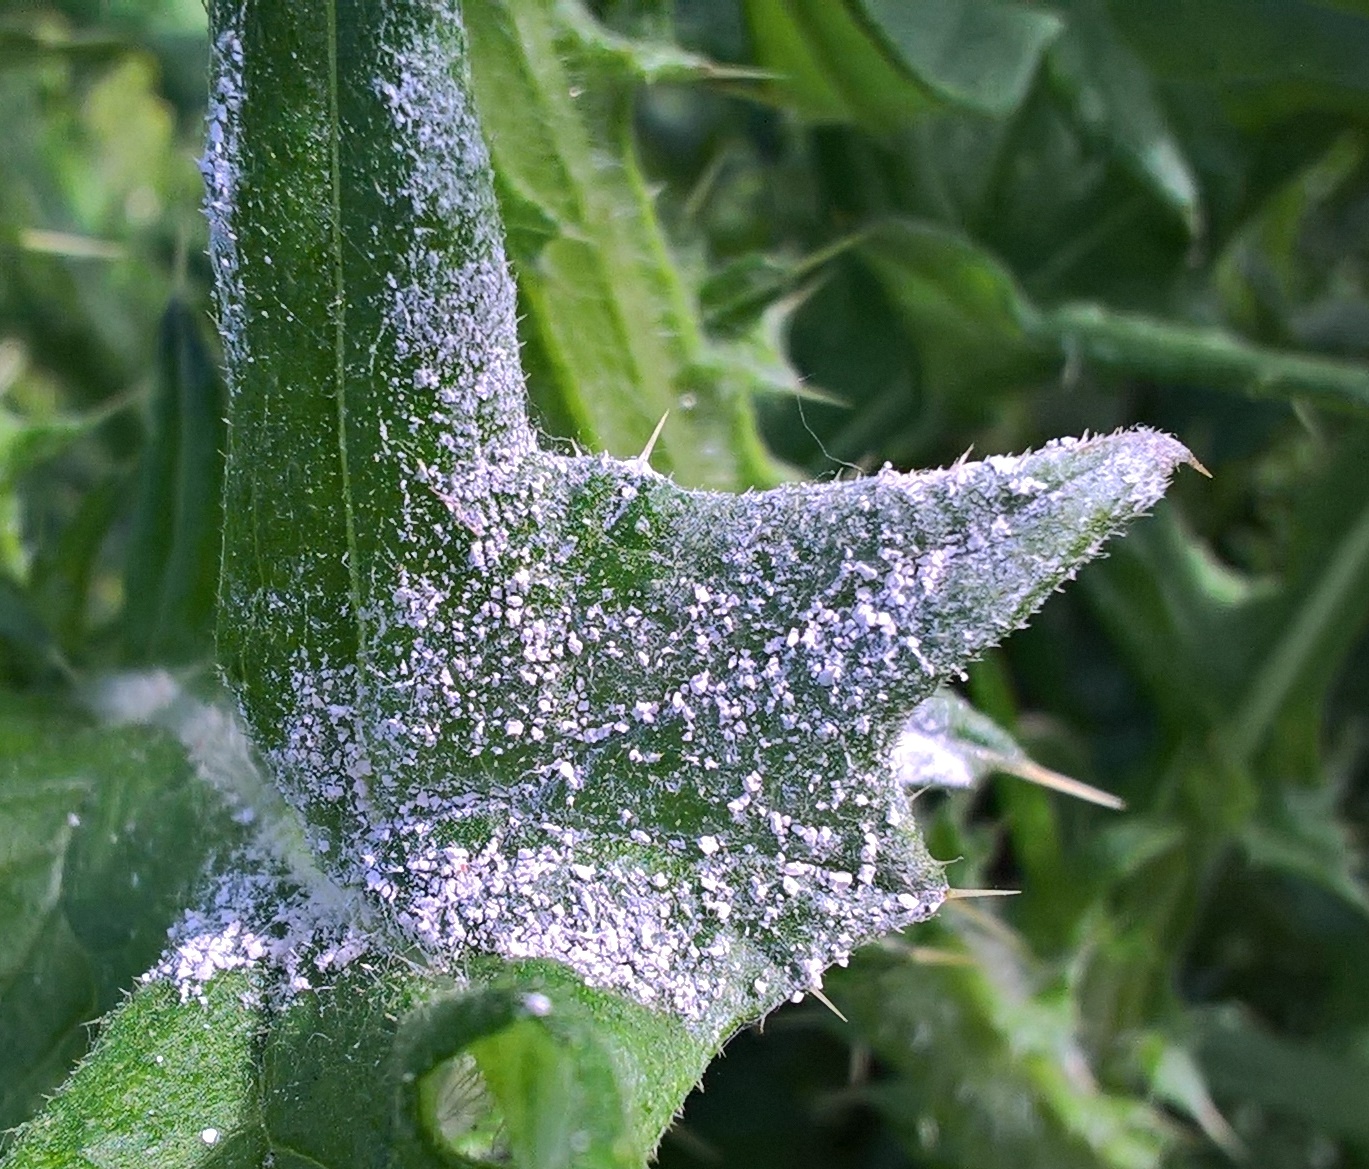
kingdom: Fungi
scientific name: Fungi
